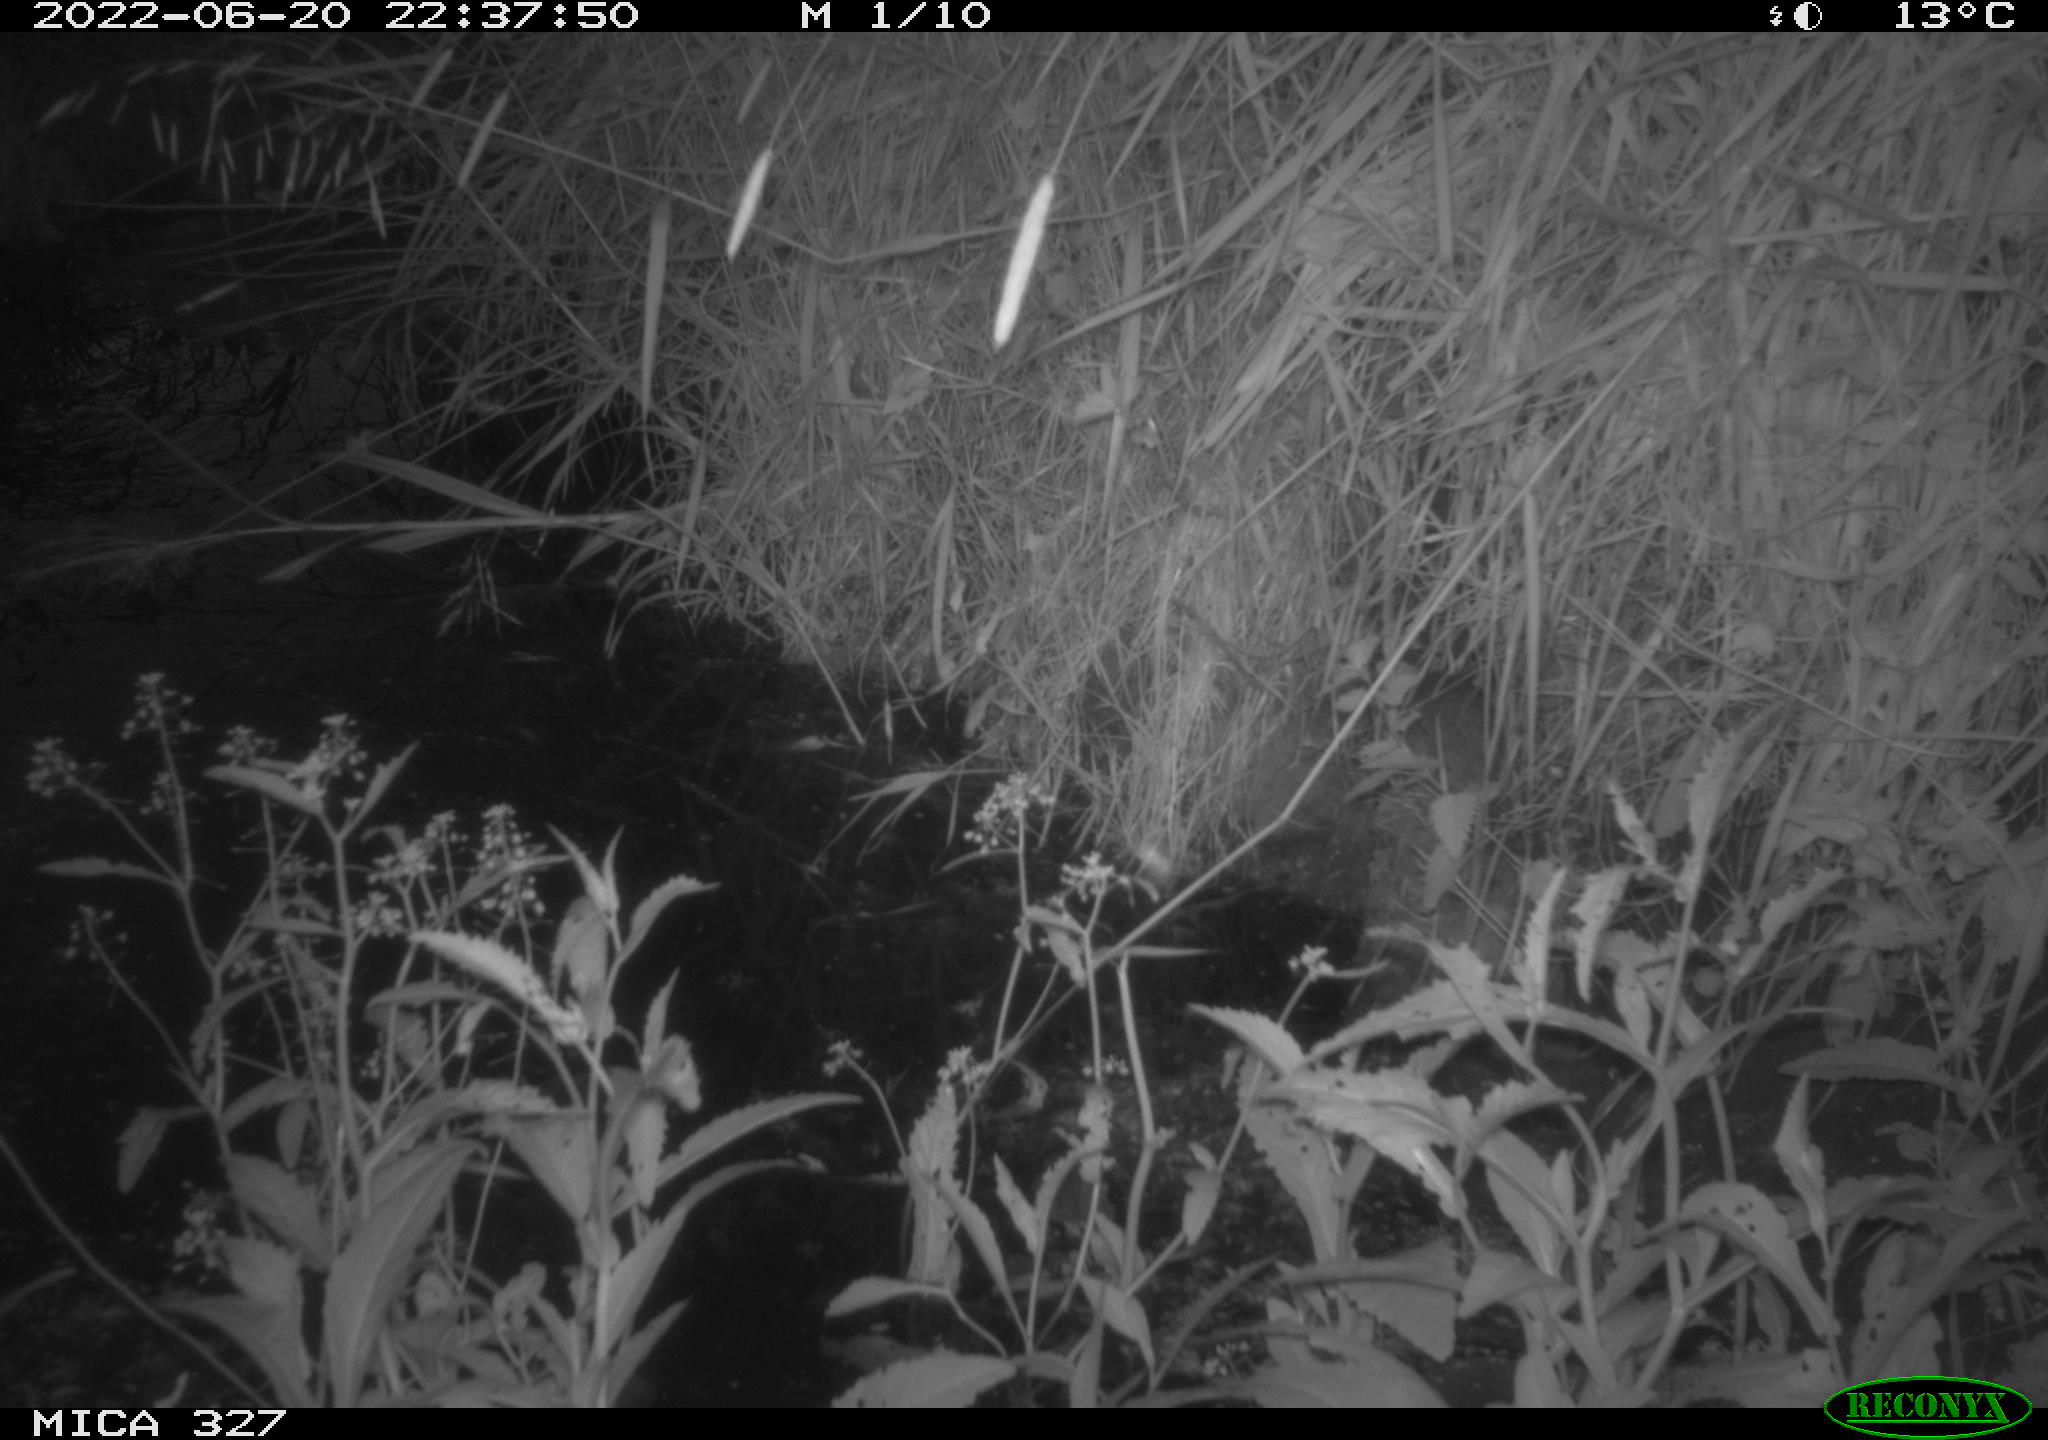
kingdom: Animalia
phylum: Chordata
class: Mammalia
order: Rodentia
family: Muridae
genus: Rattus
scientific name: Rattus norvegicus
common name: Brown rat
